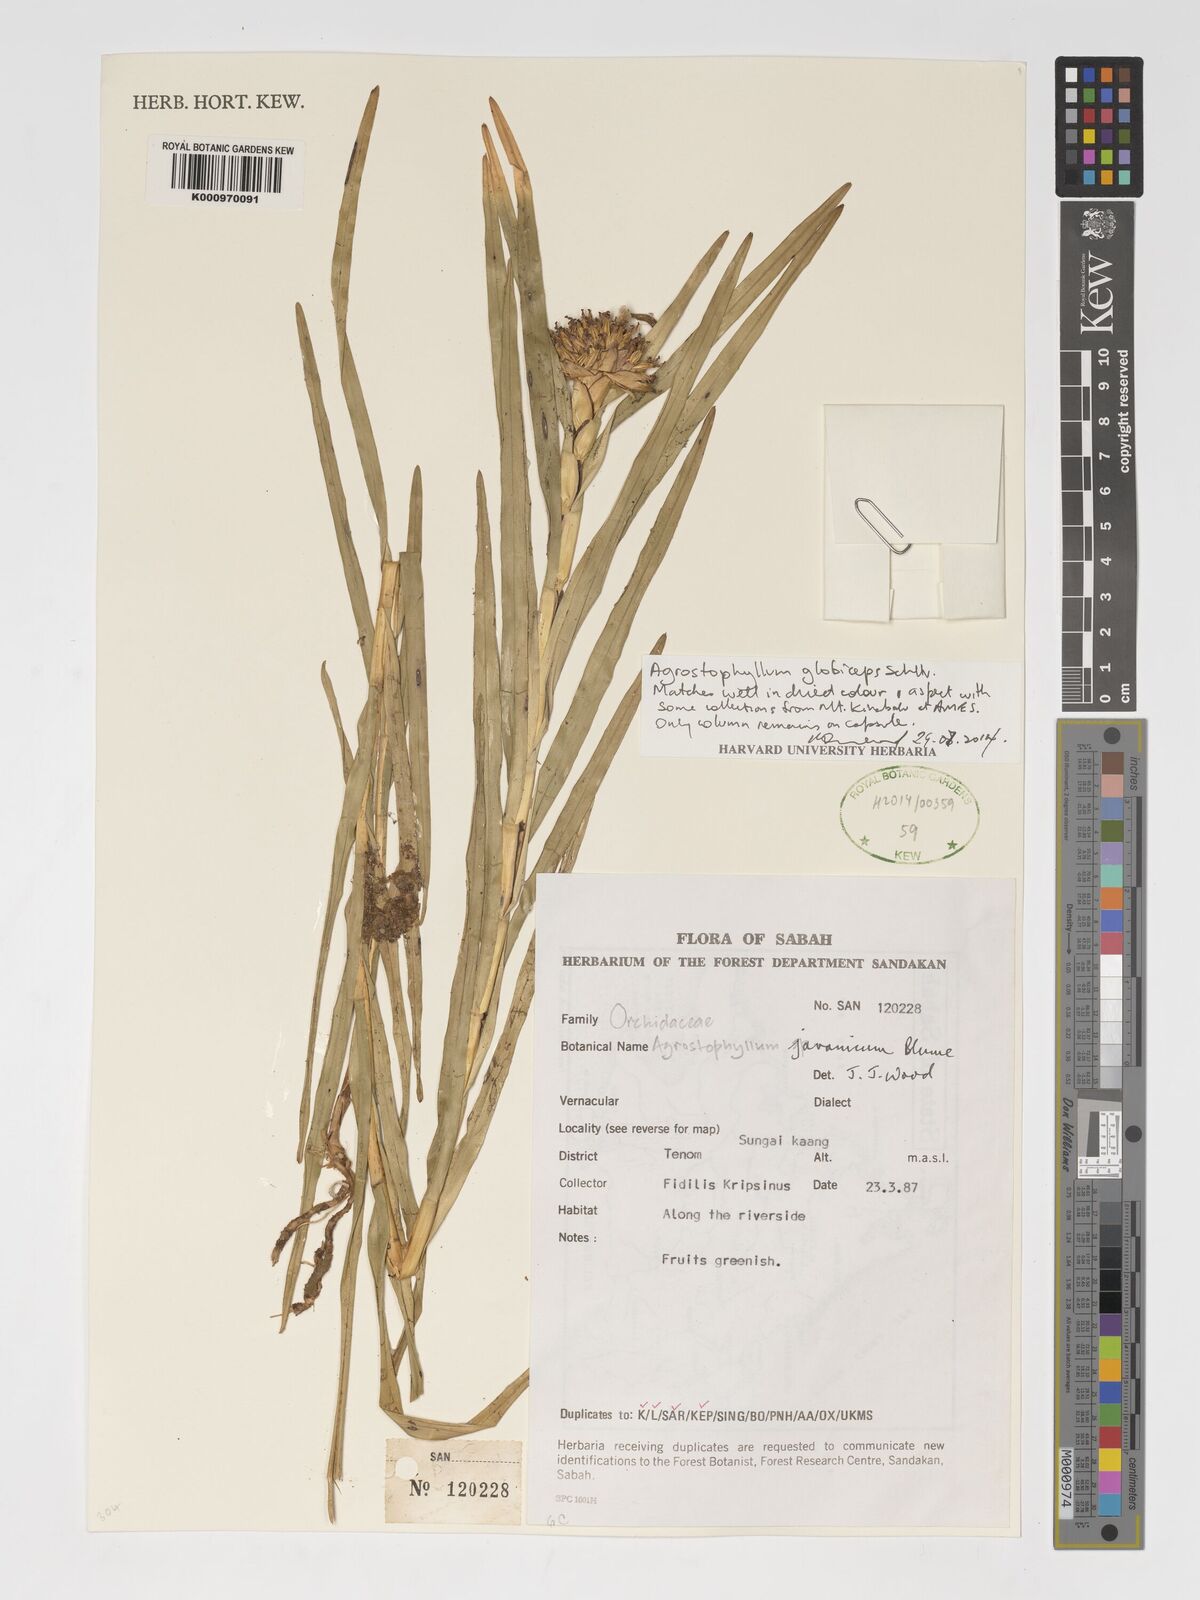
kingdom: Plantae
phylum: Tracheophyta
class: Liliopsida
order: Asparagales
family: Orchidaceae
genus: Agrostophyllum
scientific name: Agrostophyllum globiceps
